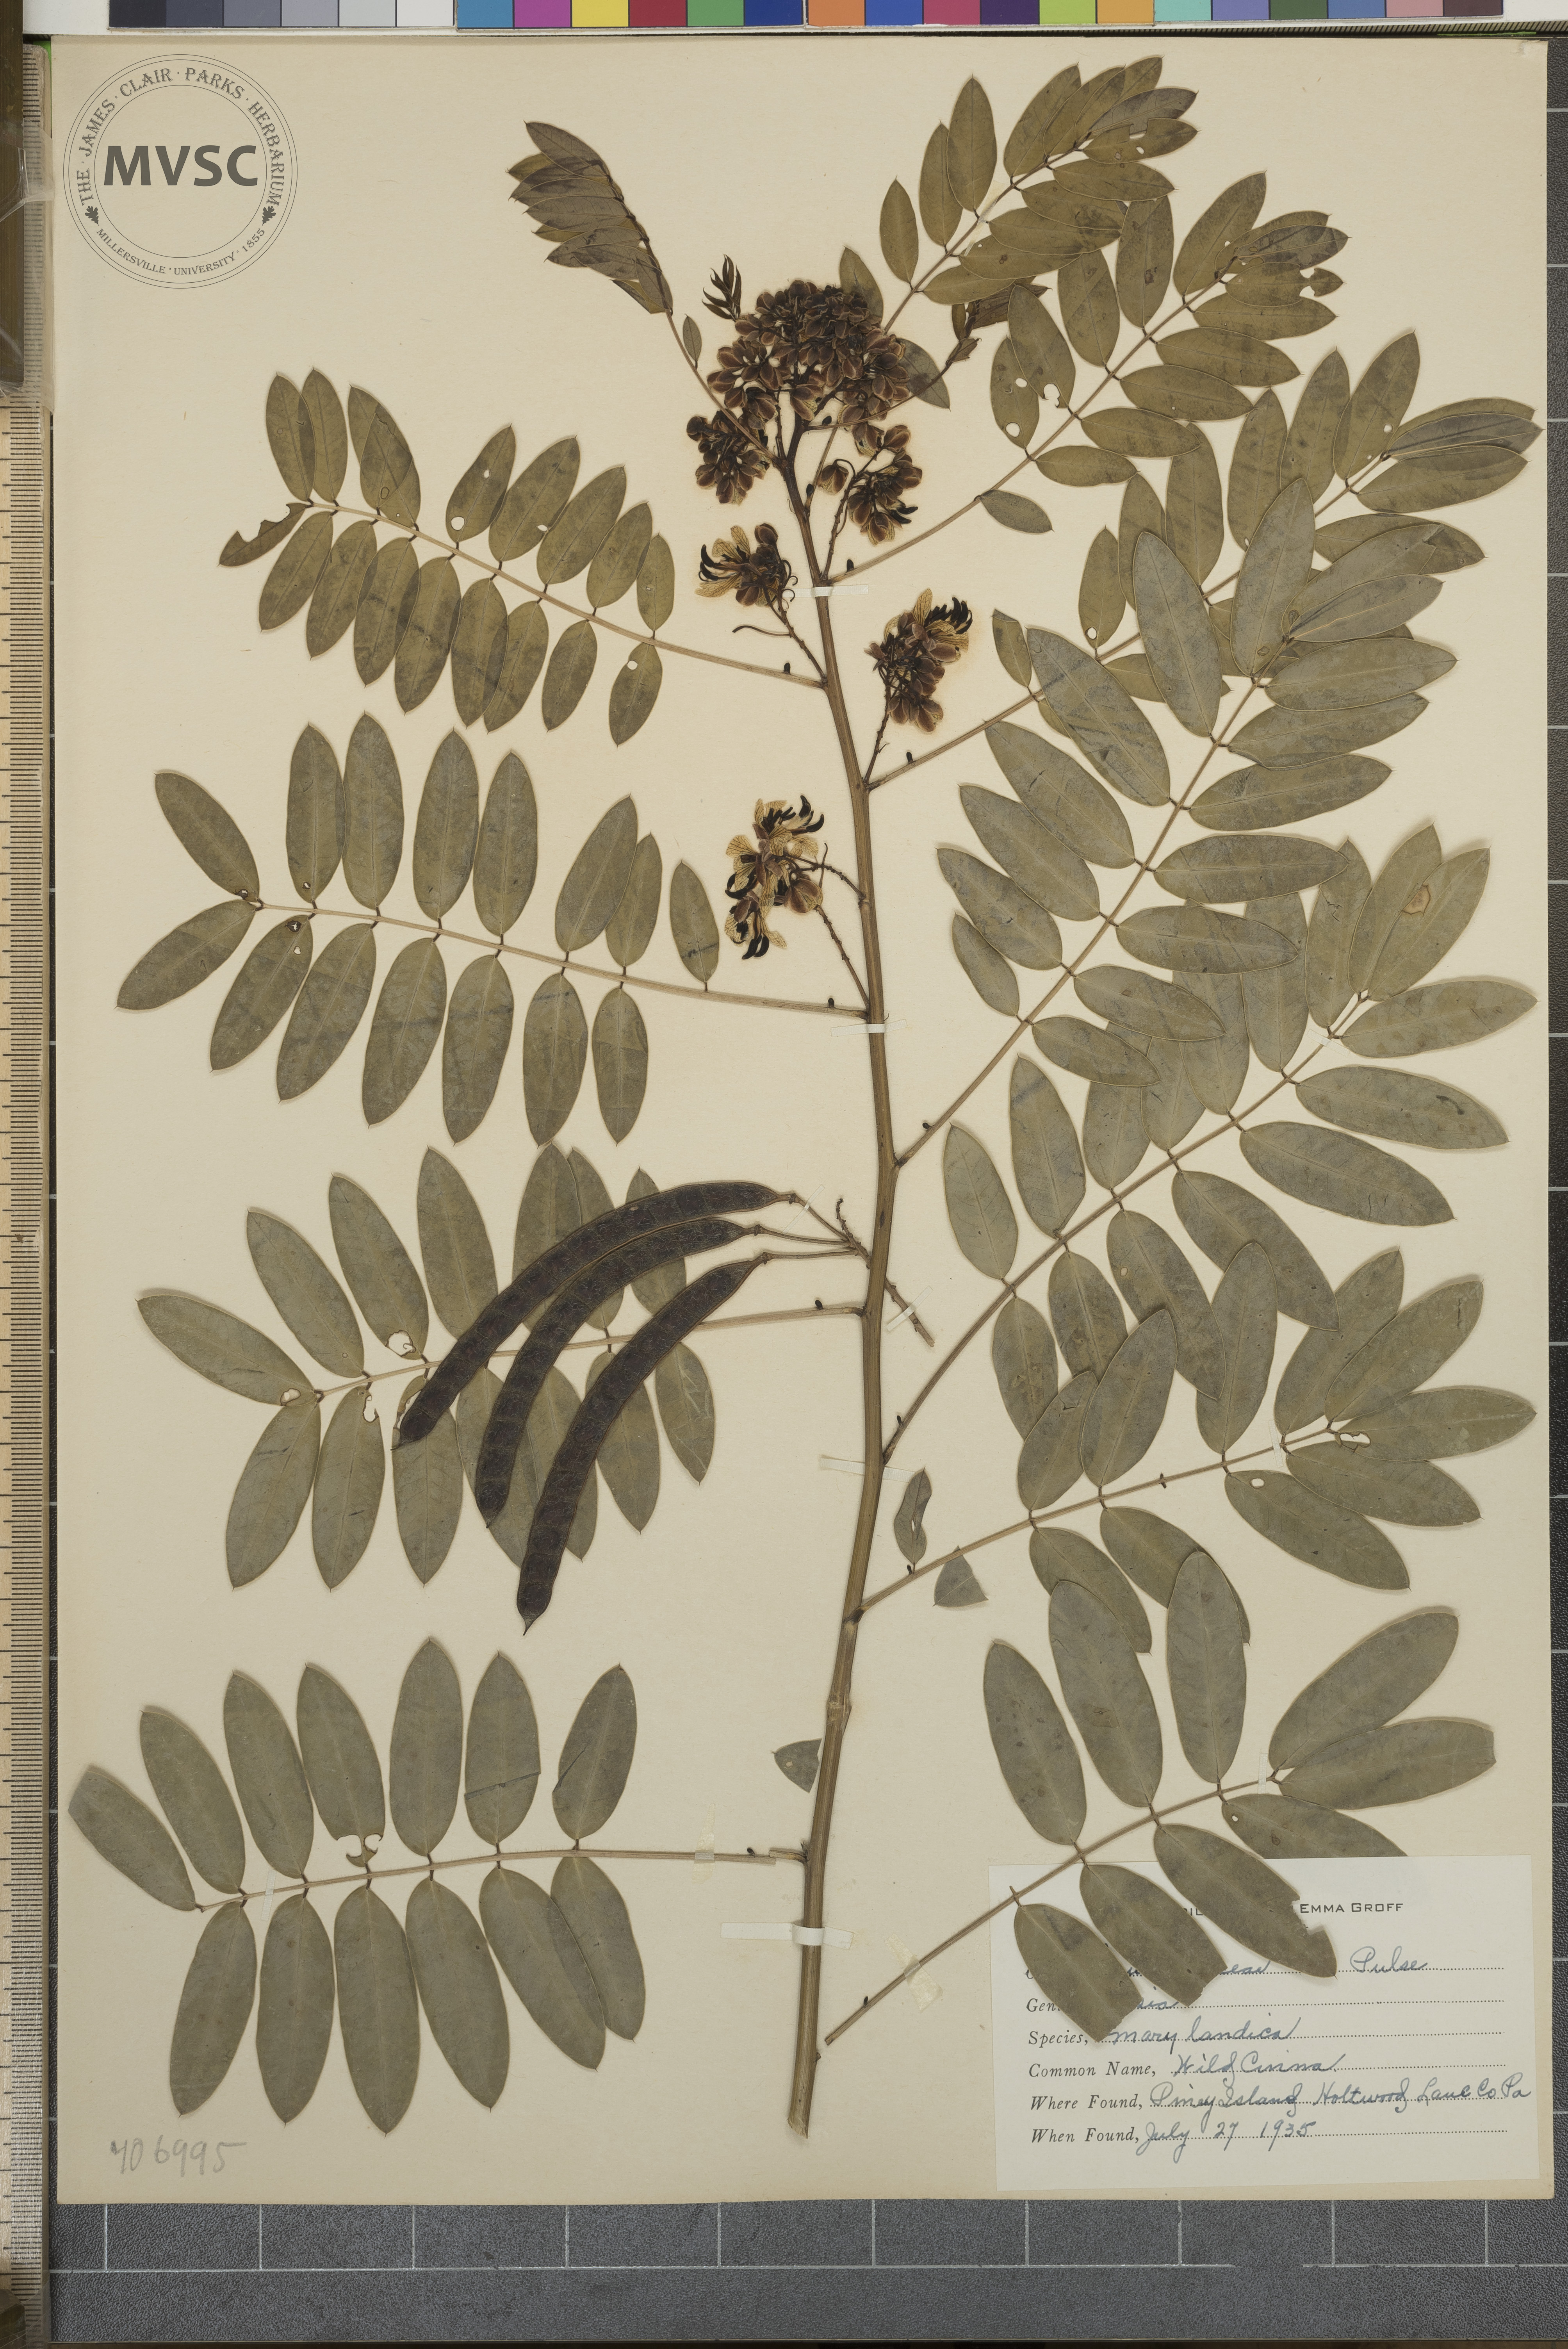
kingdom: Plantae
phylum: Tracheophyta
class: Magnoliopsida
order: Fabales
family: Fabaceae
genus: Senna
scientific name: Senna marilandica
